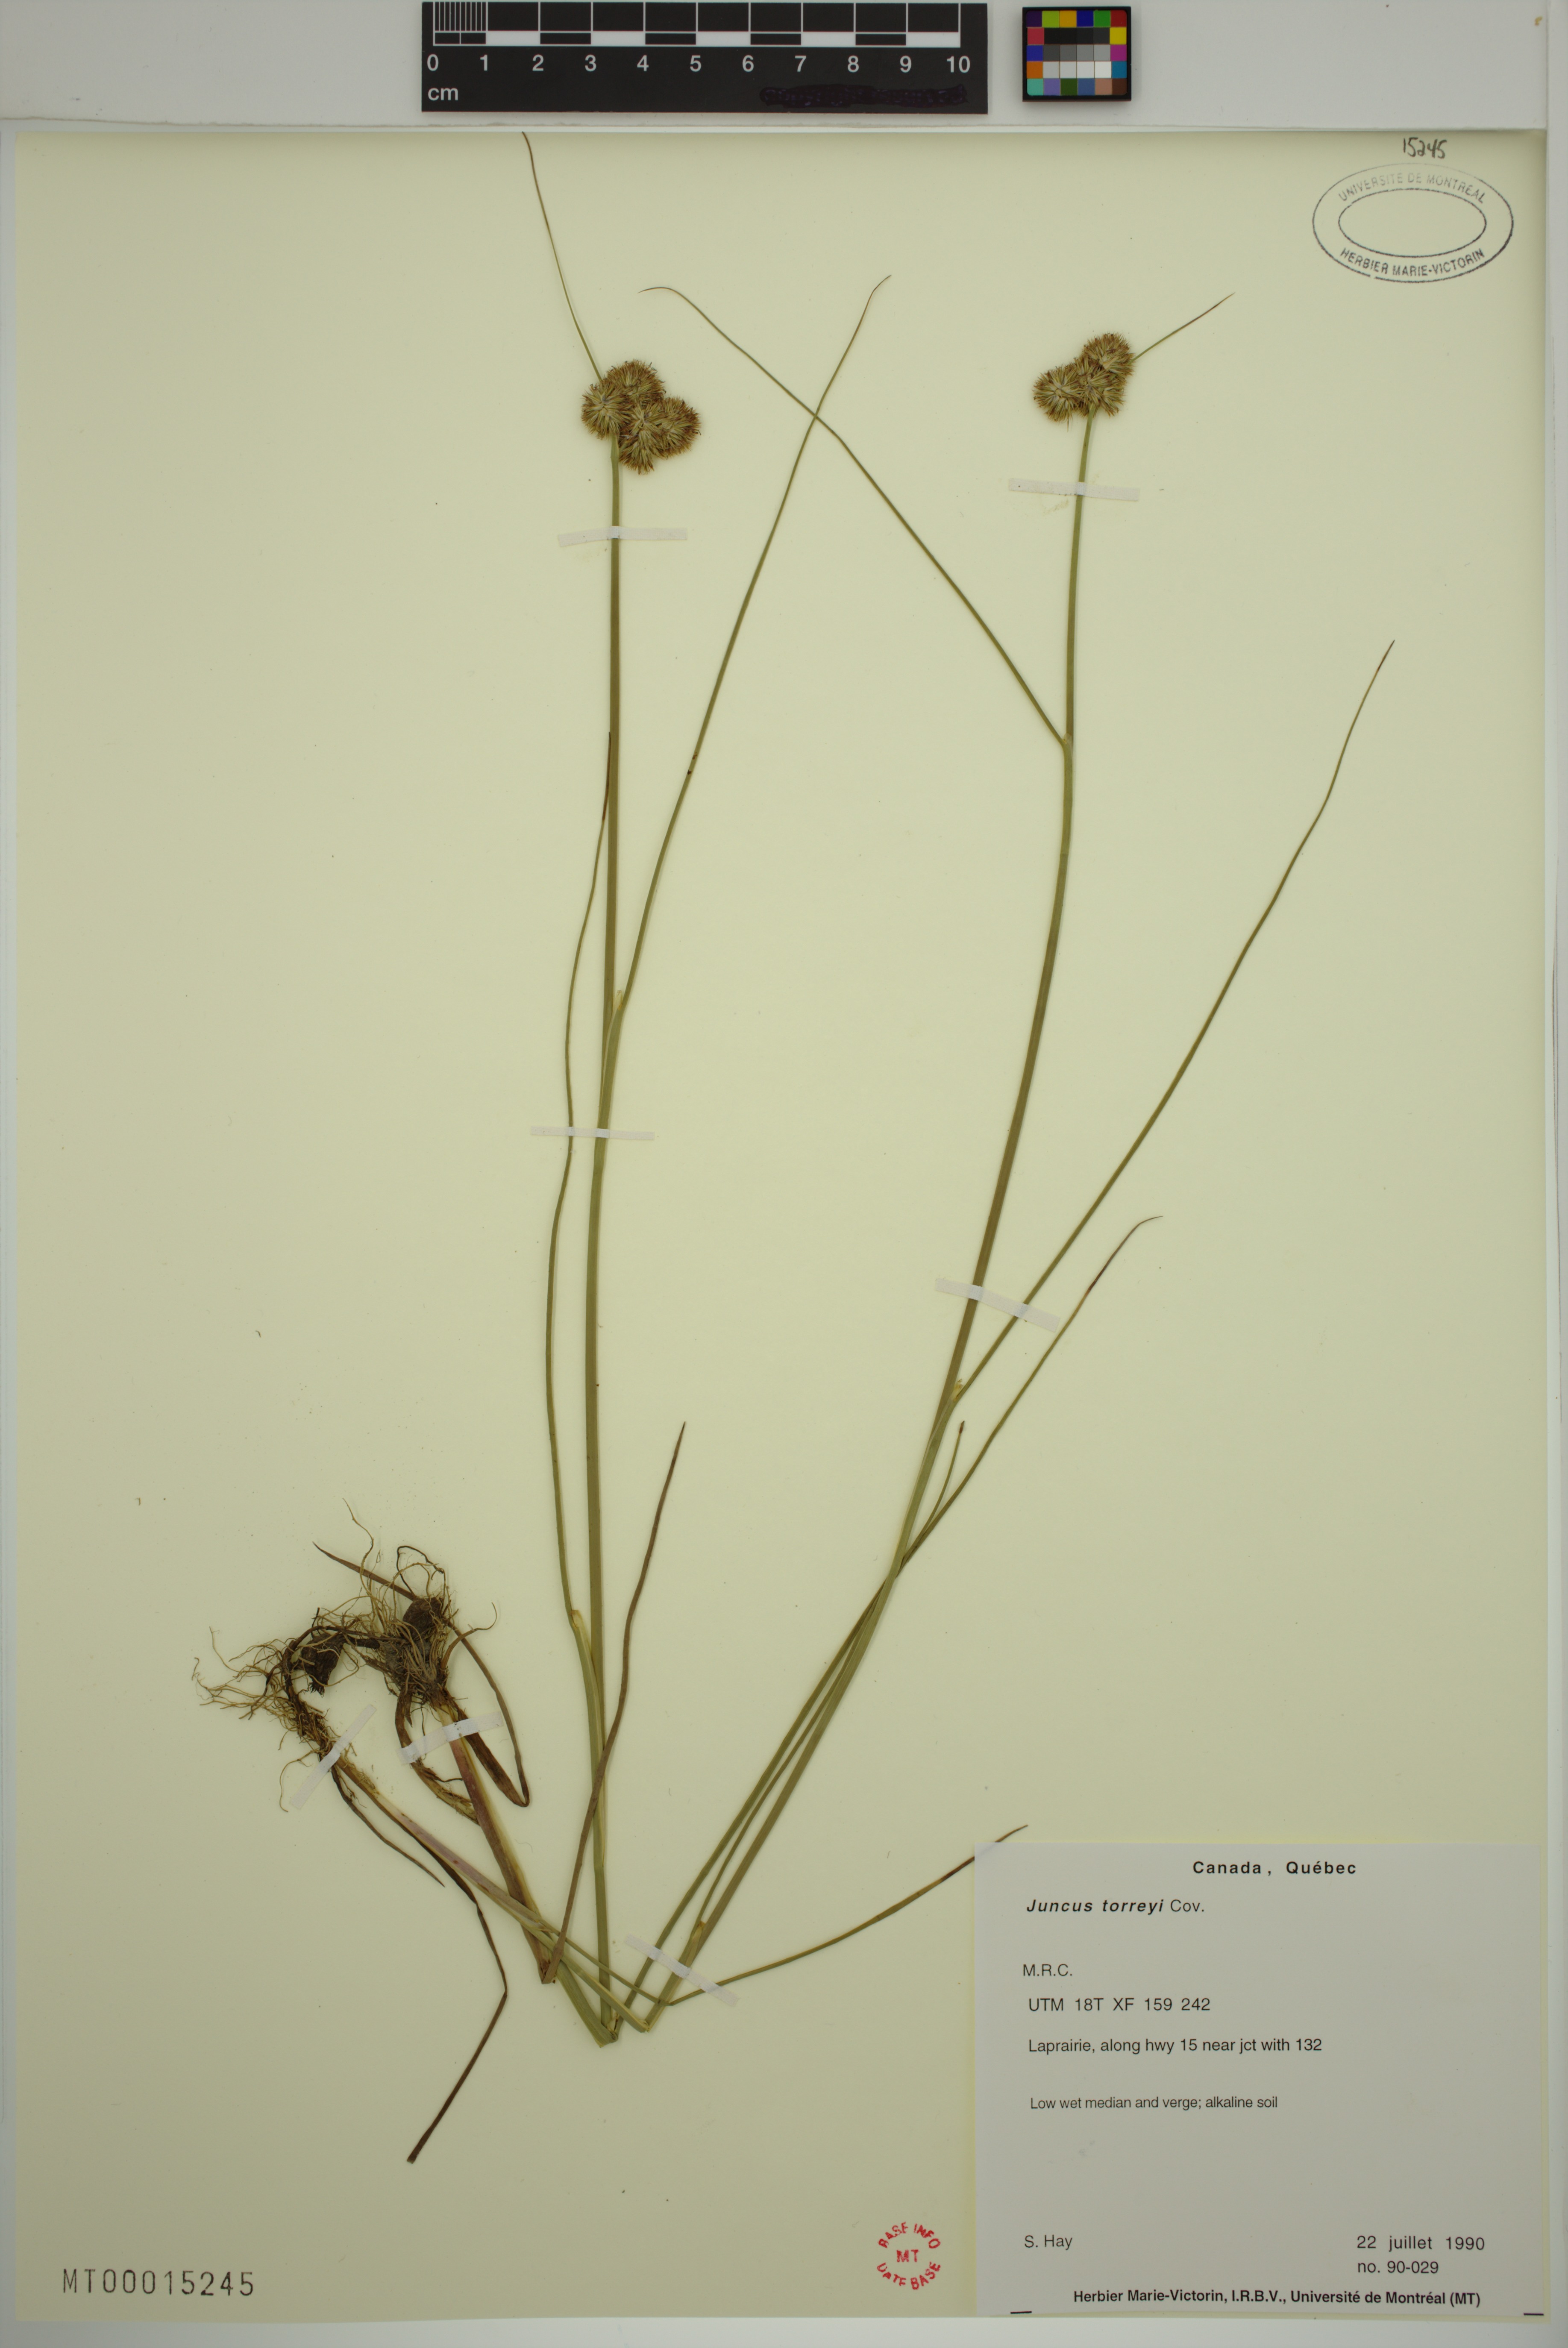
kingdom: Plantae
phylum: Tracheophyta
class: Liliopsida
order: Poales
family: Juncaceae
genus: Juncus
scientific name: Juncus torreyi
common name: Torrey's rush
